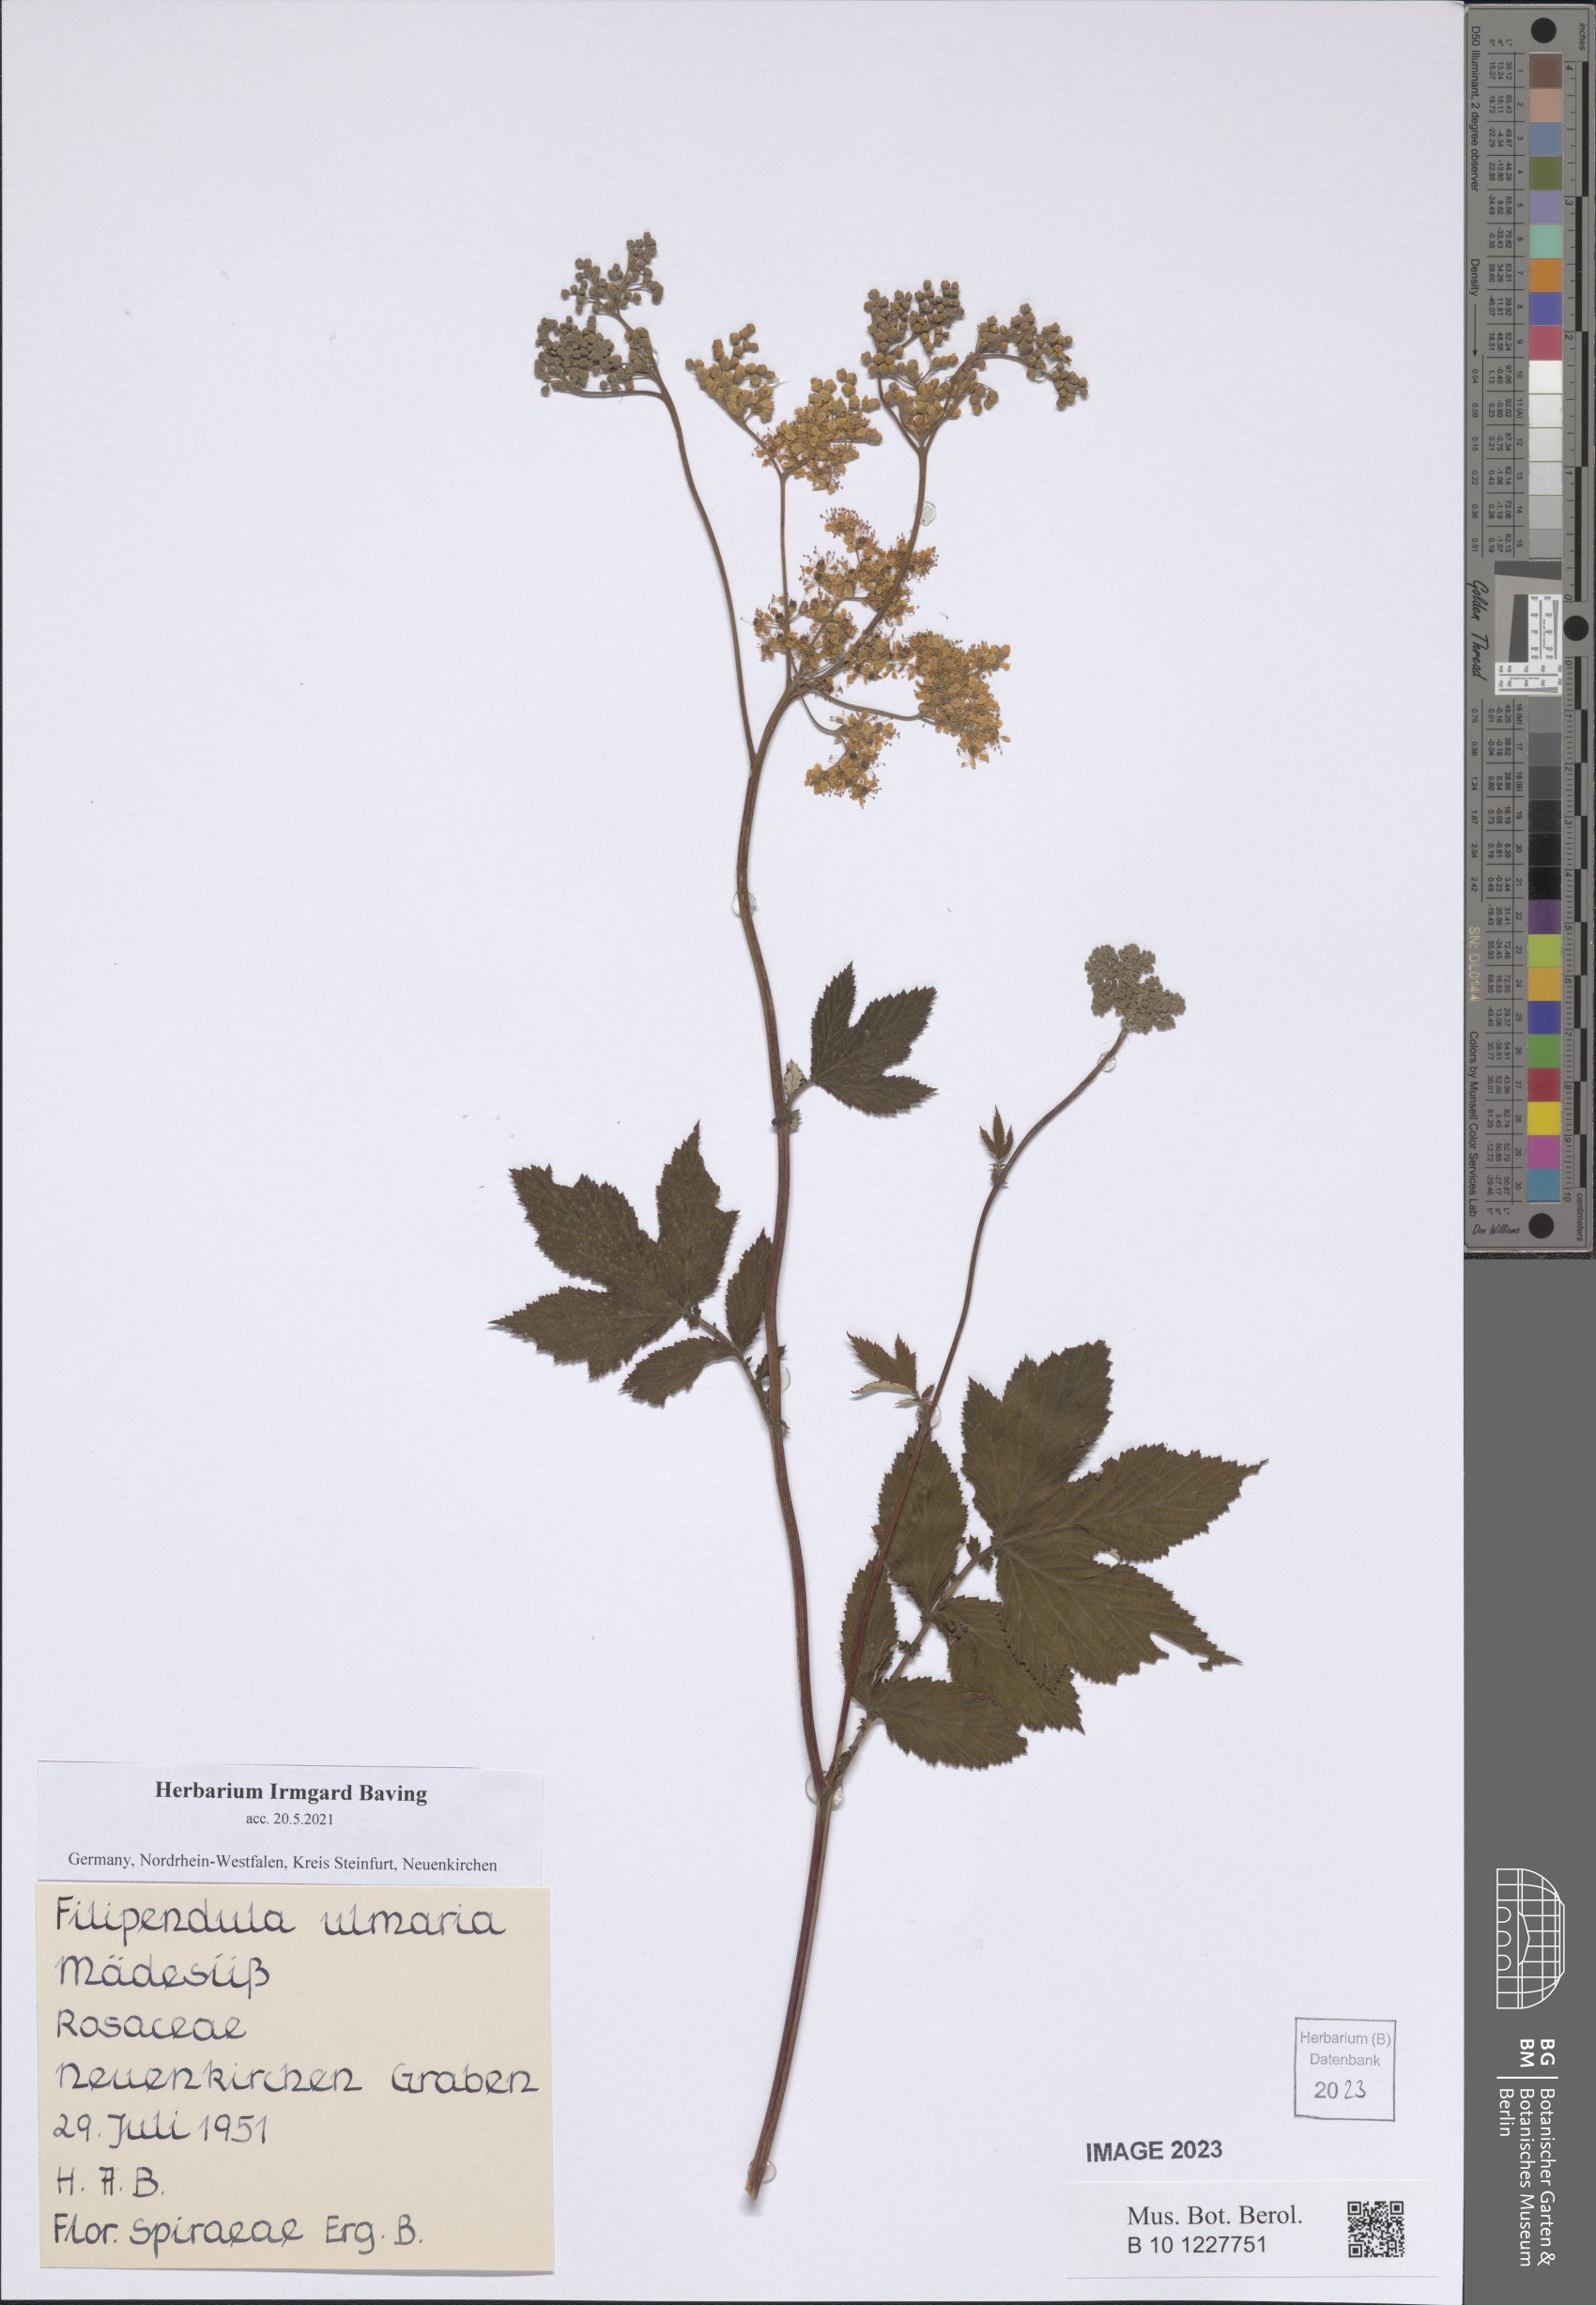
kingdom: Plantae
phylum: Tracheophyta
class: Magnoliopsida
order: Rosales
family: Rosaceae
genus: Filipendula
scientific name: Filipendula ulmaria
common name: Meadowsweet
